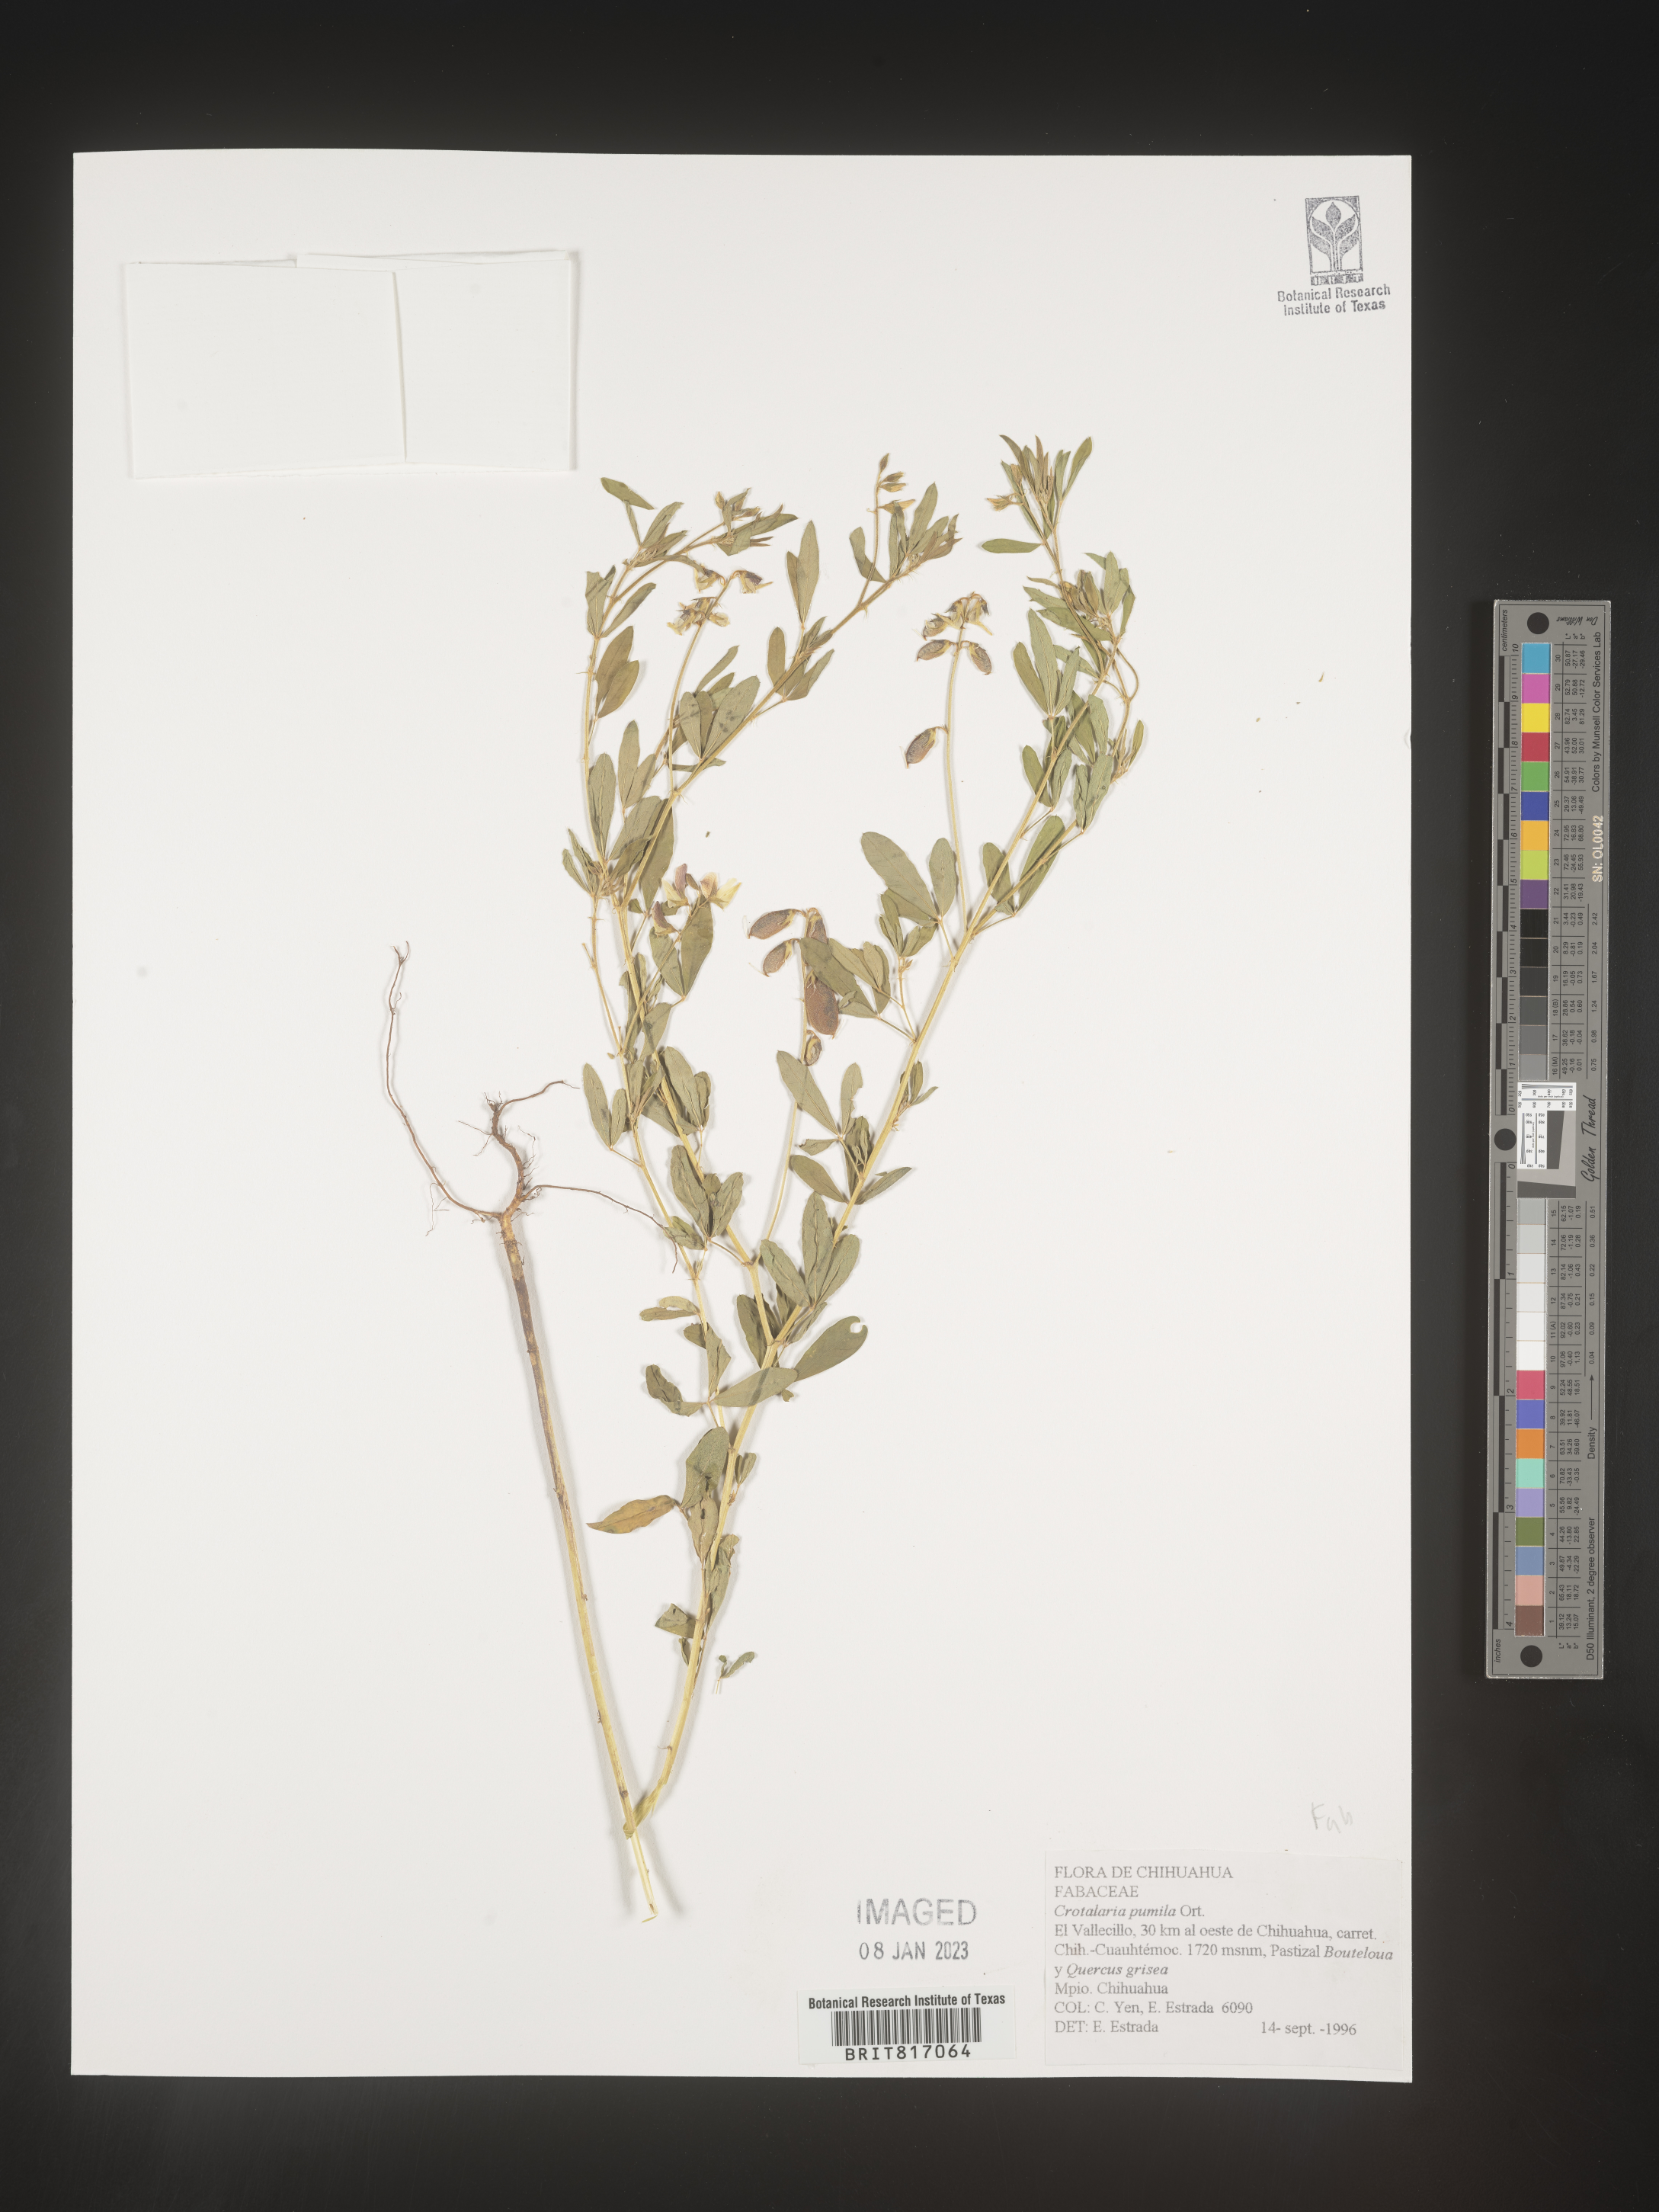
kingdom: Plantae
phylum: Tracheophyta
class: Magnoliopsida
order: Fabales
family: Fabaceae
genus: Crotalaria
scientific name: Crotalaria
